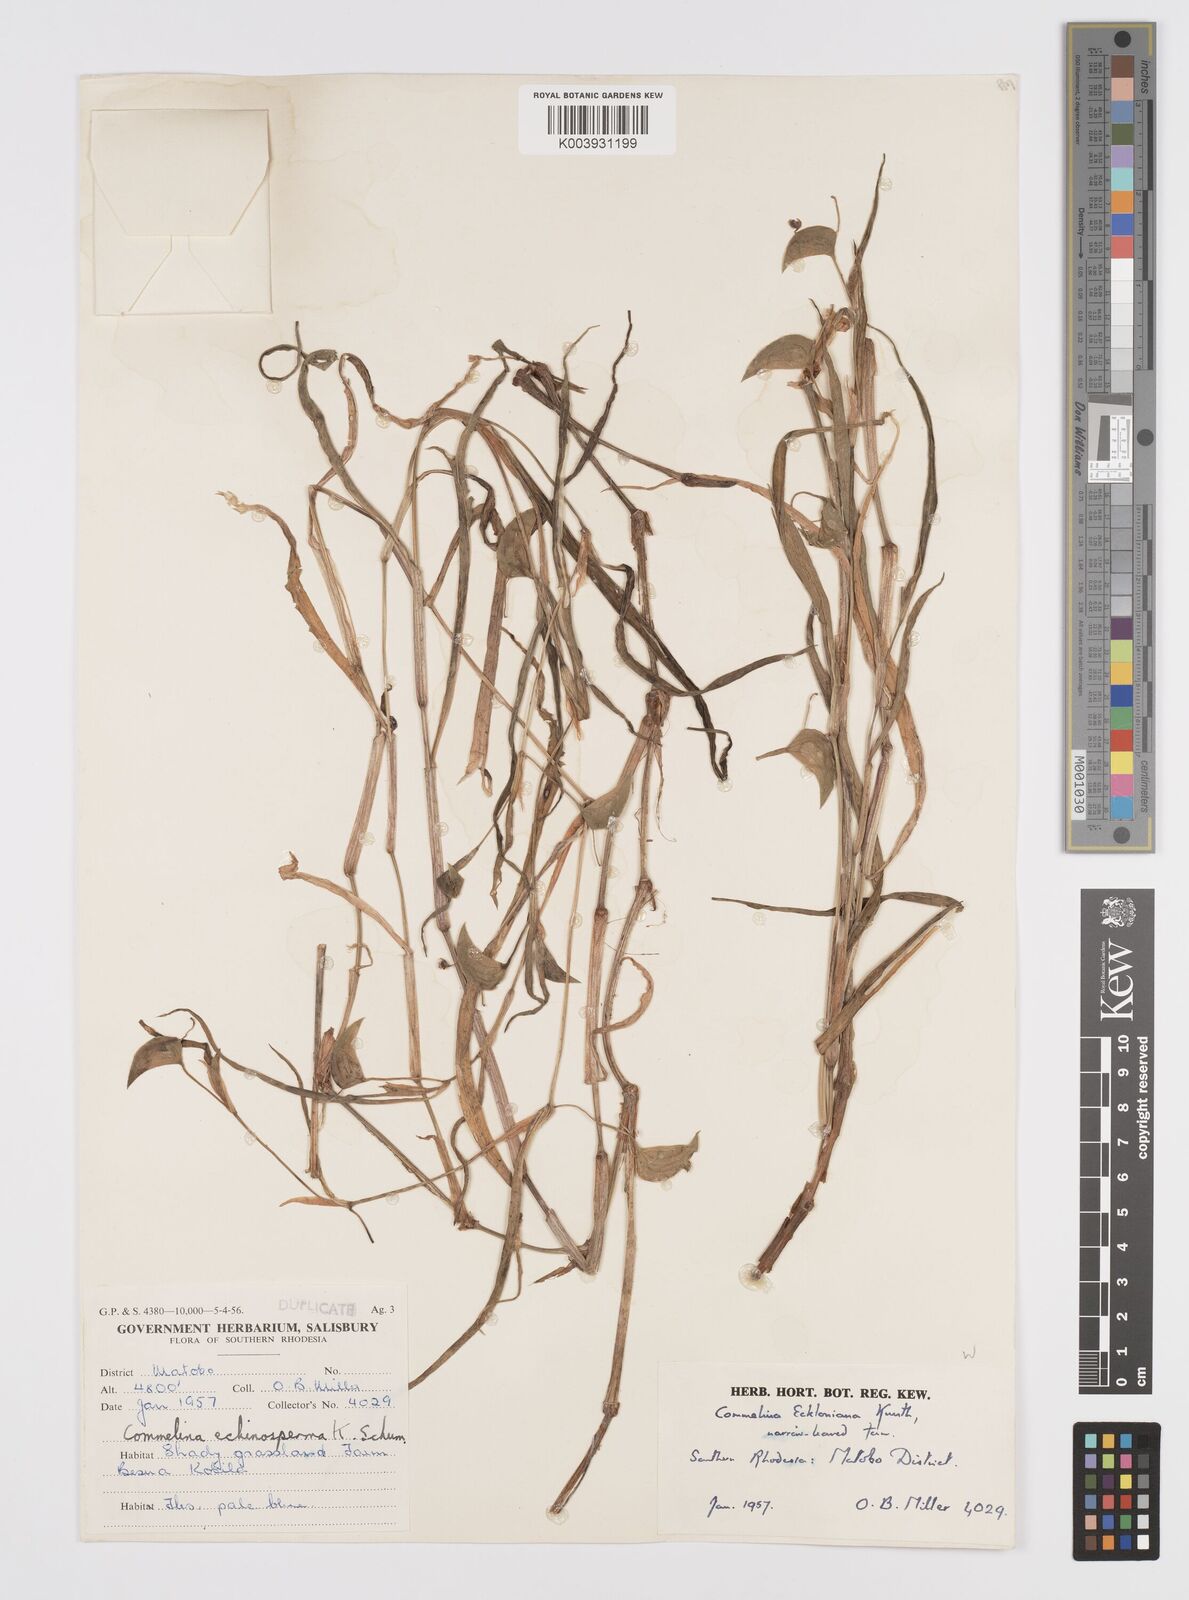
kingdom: Plantae
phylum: Tracheophyta
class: Liliopsida
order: Commelinales
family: Commelinaceae
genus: Commelina
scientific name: Commelina eckloniana
